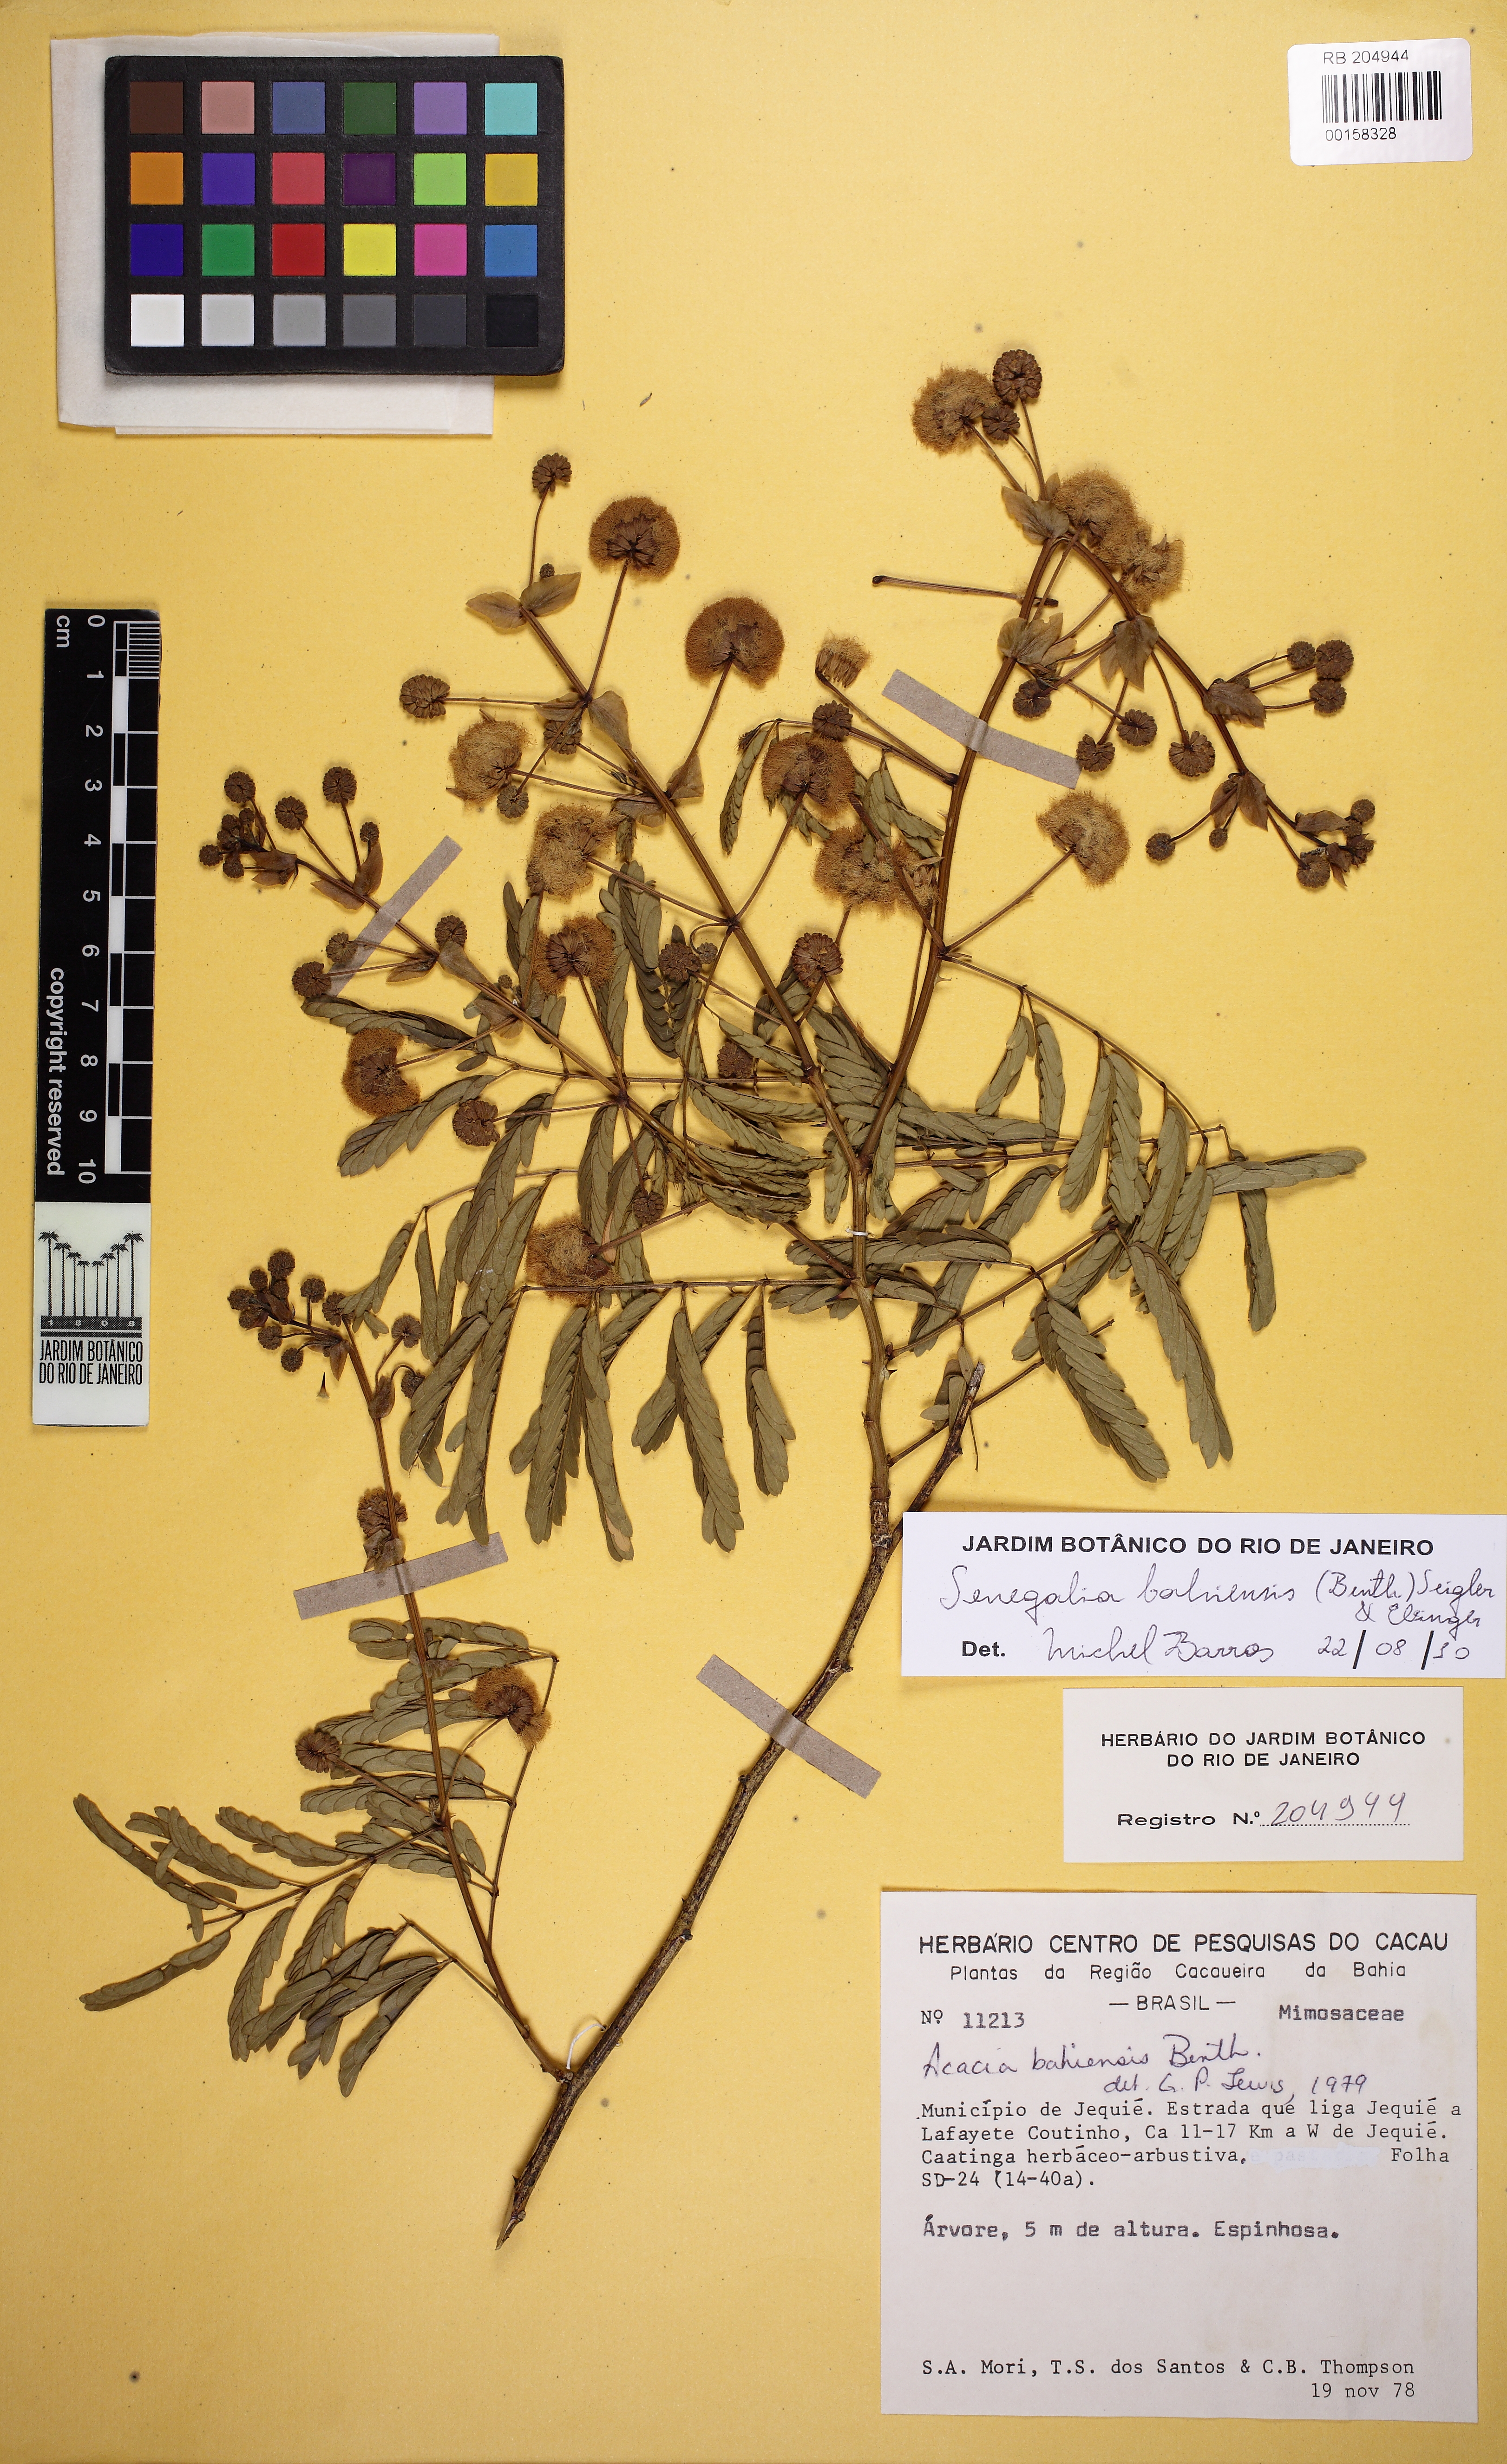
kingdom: Plantae
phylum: Tracheophyta
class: Magnoliopsida
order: Fabales
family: Fabaceae
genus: Senegalia
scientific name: Senegalia bahiensis
